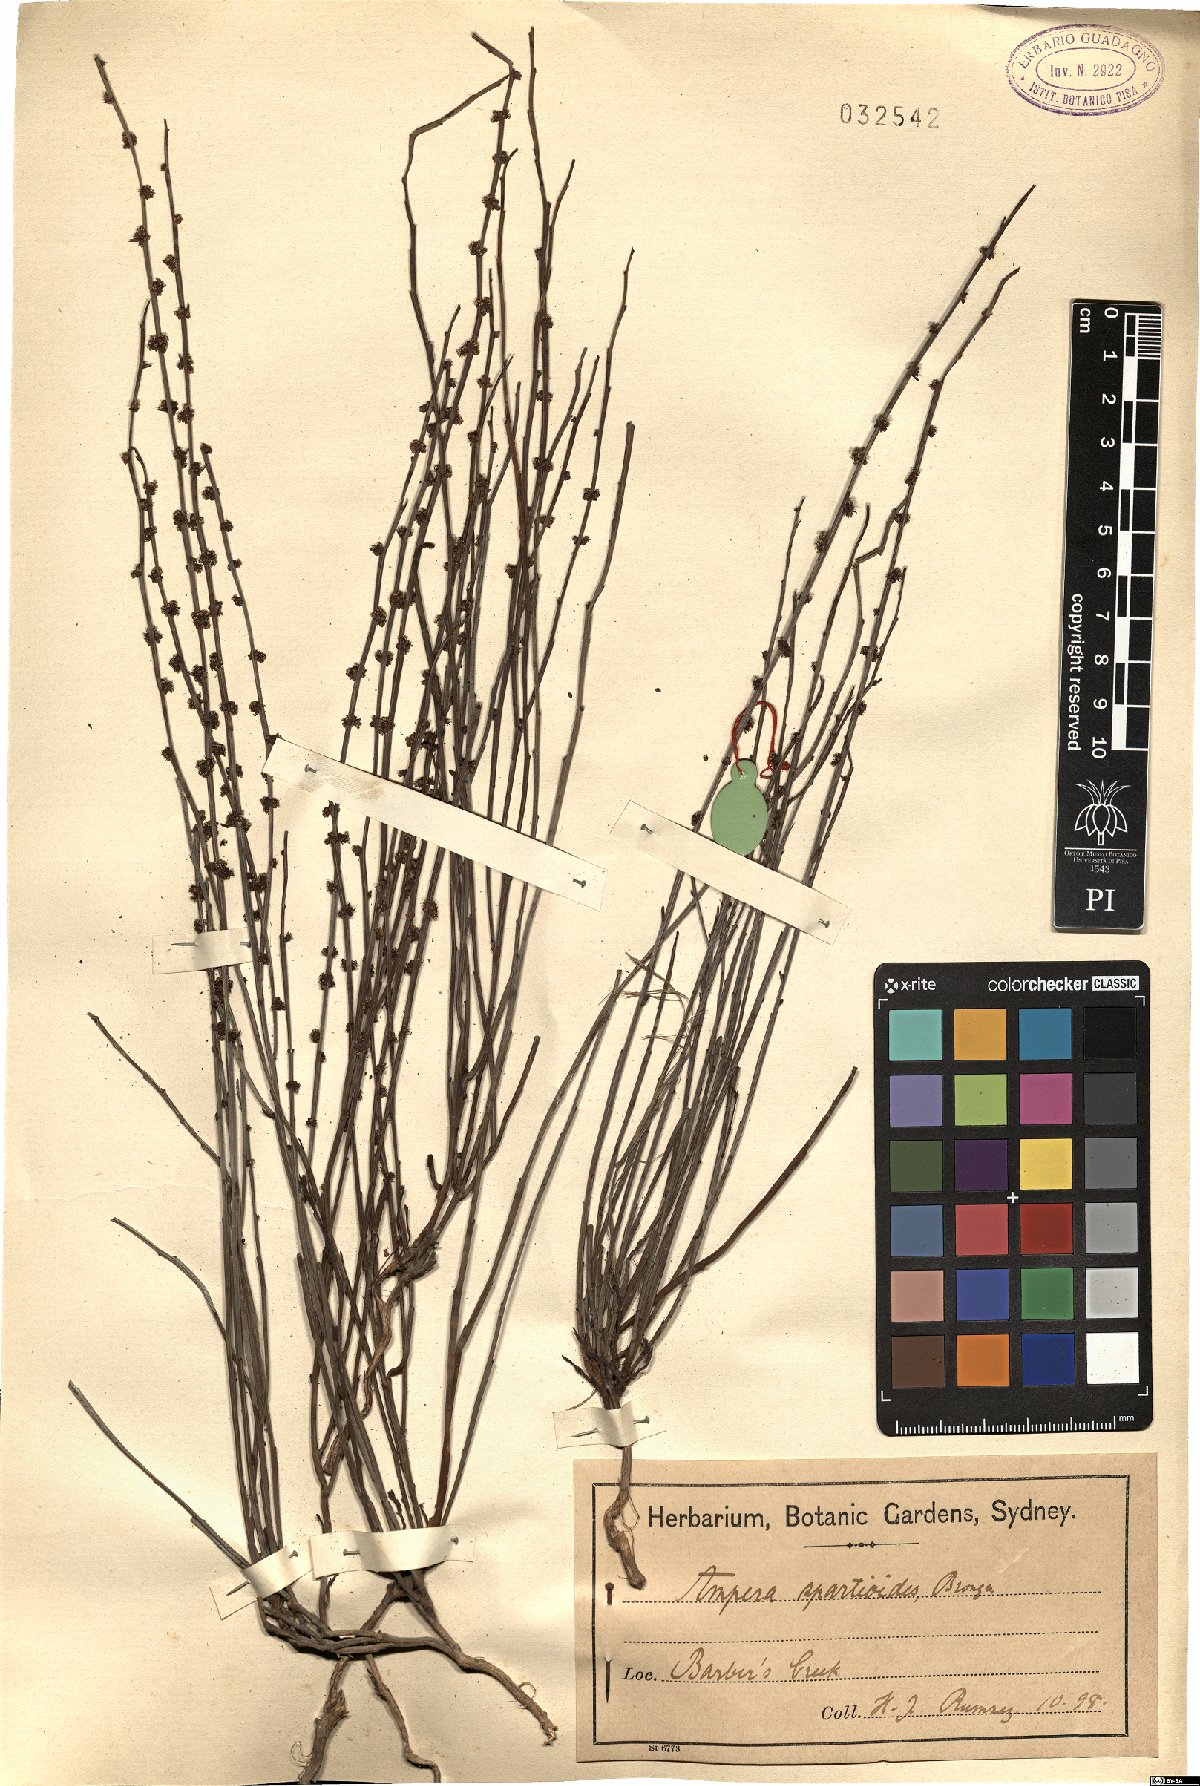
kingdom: Plantae
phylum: Tracheophyta
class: Magnoliopsida
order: Malpighiales
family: Euphorbiaceae
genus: Amperea
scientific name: Amperea xiphoclada
